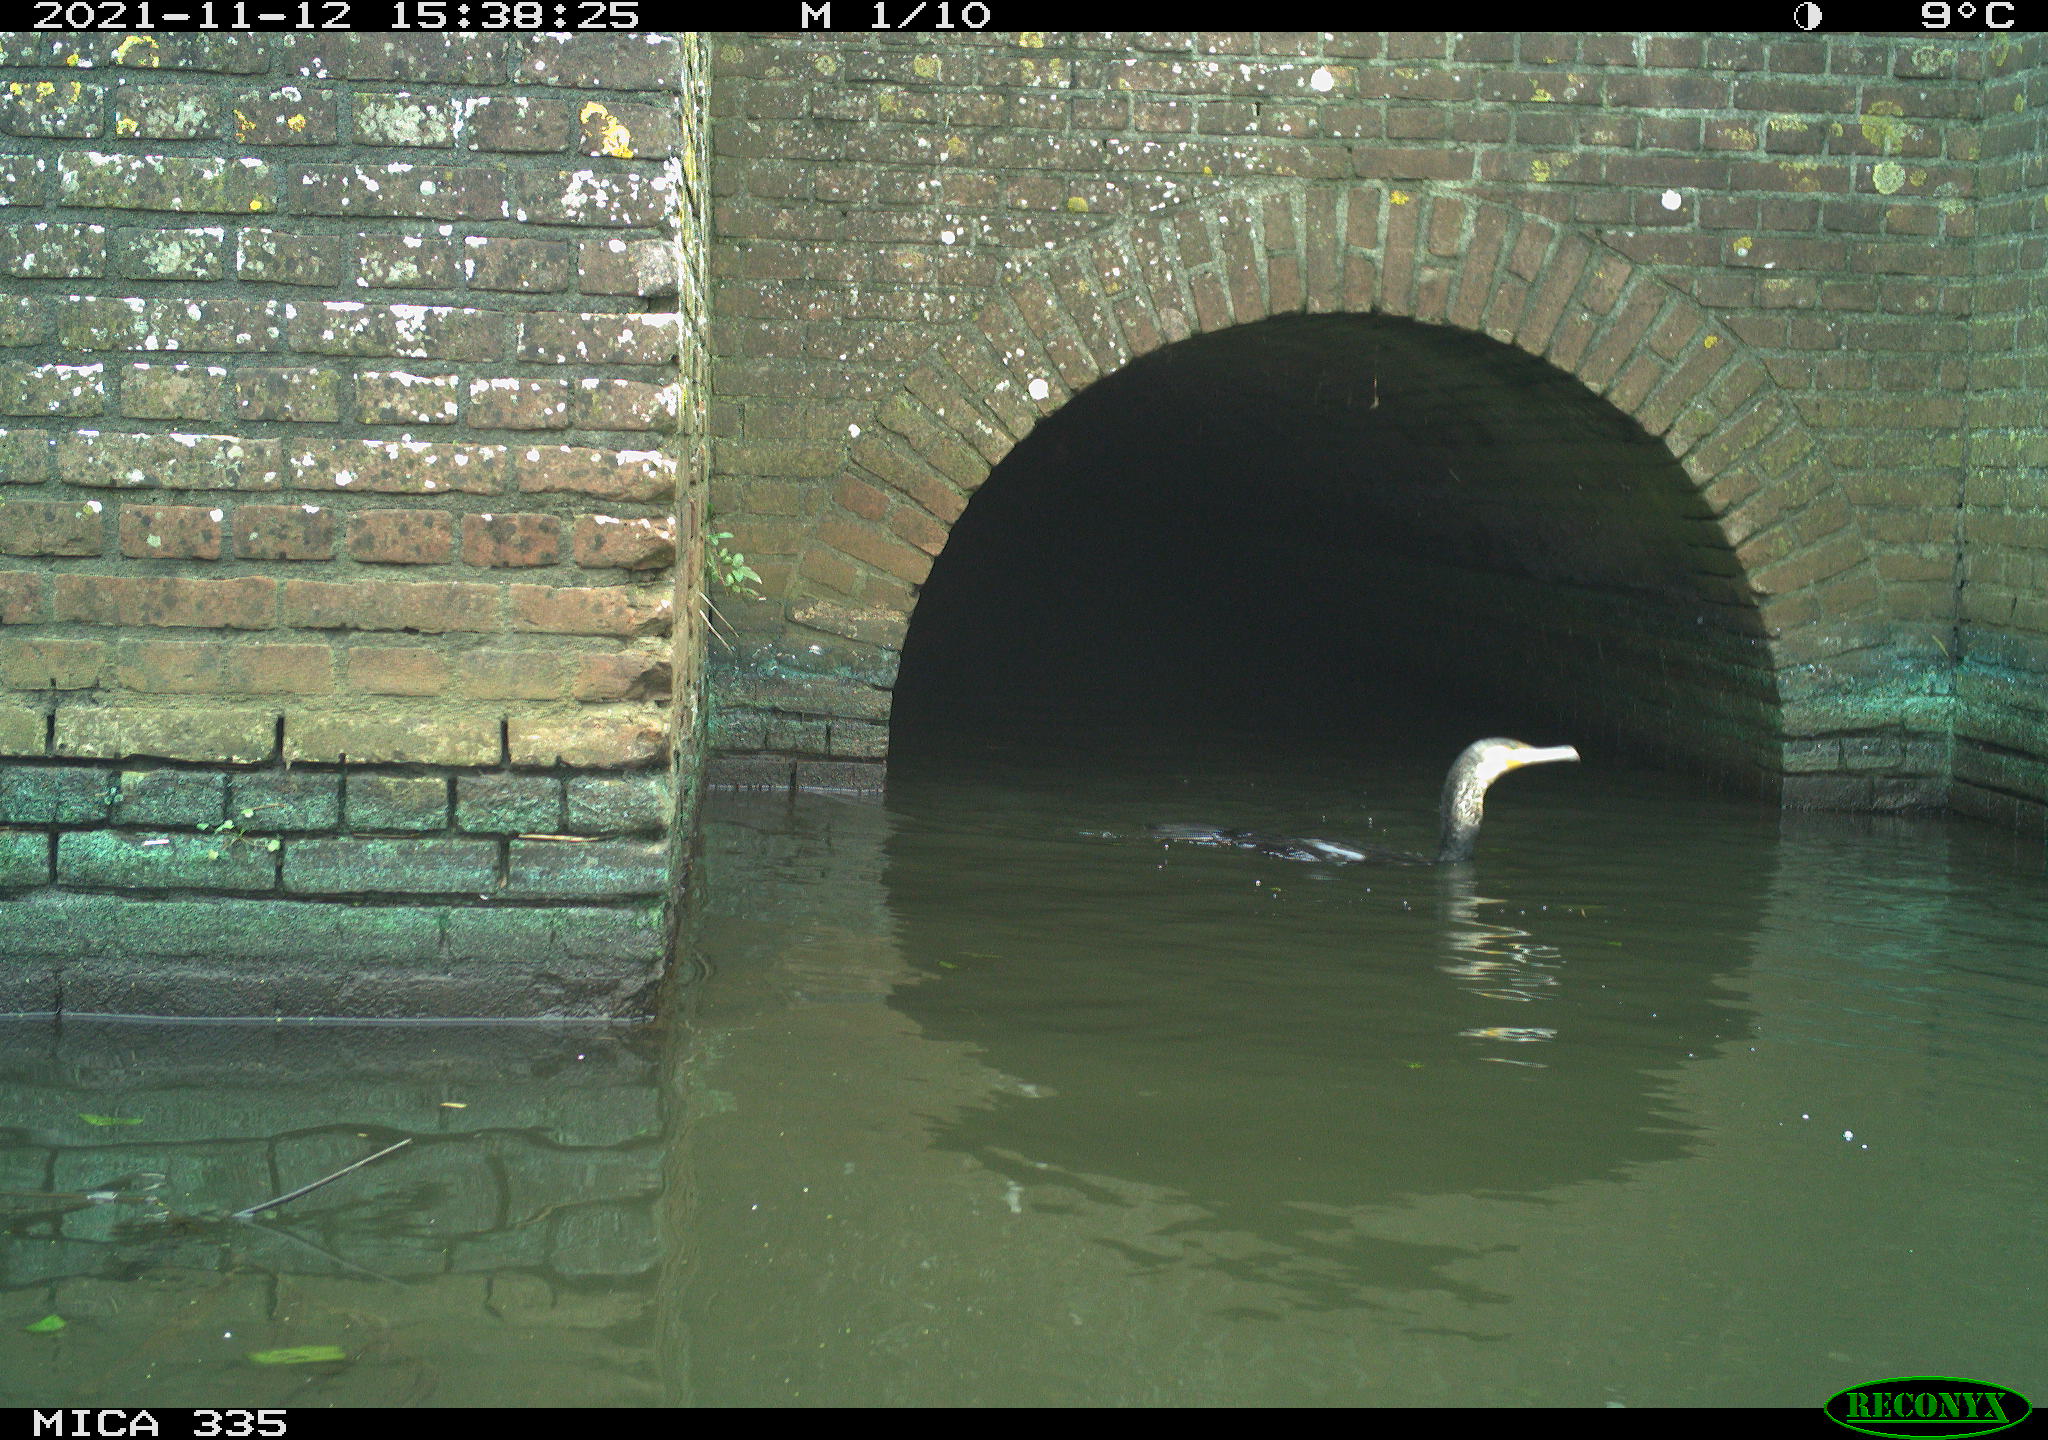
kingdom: Animalia
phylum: Chordata
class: Aves
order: Suliformes
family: Phalacrocoracidae
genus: Phalacrocorax
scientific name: Phalacrocorax carbo
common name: Great cormorant
